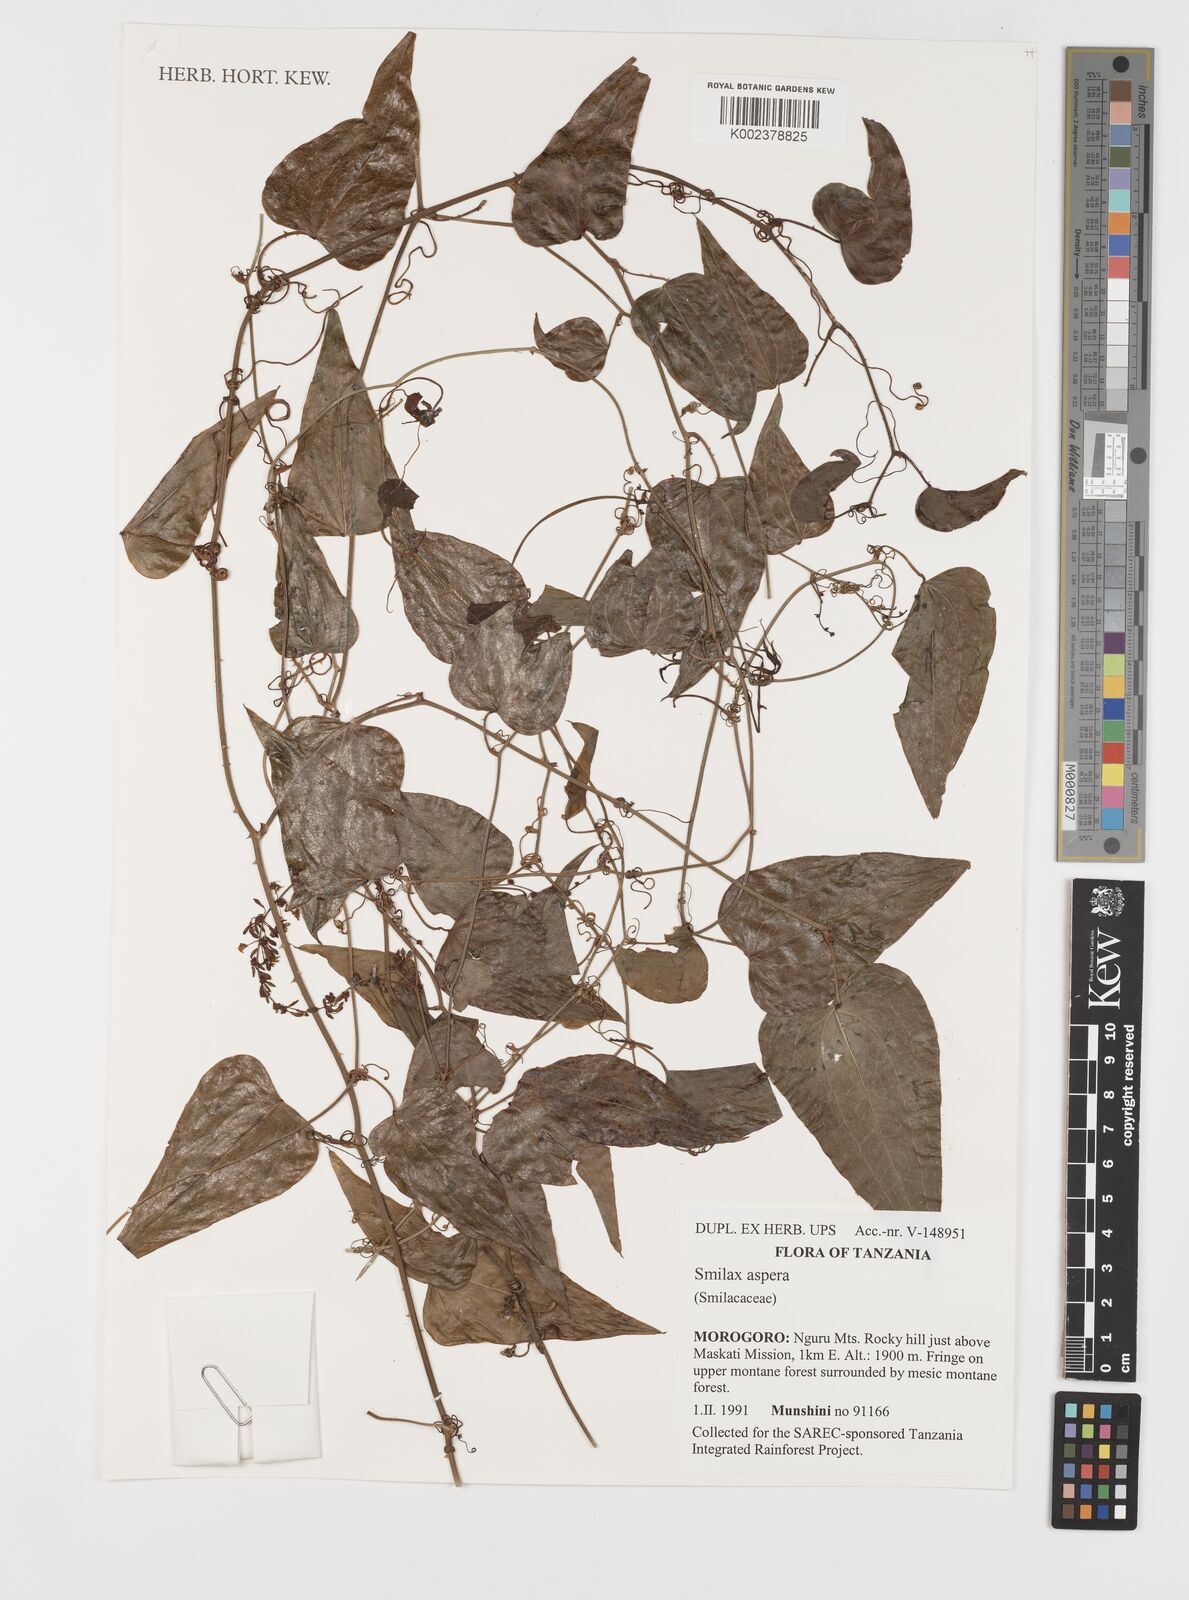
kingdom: Plantae
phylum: Tracheophyta
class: Liliopsida
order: Liliales
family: Smilacaceae
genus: Smilax
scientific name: Smilax aspera
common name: Common smilax
